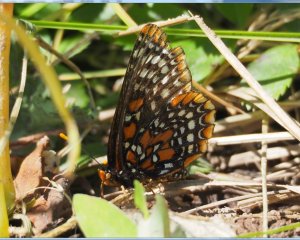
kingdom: Animalia
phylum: Arthropoda
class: Insecta
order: Lepidoptera
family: Nymphalidae
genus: Euphydryas
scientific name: Euphydryas phaeton
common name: Baltimore Checkerspot
